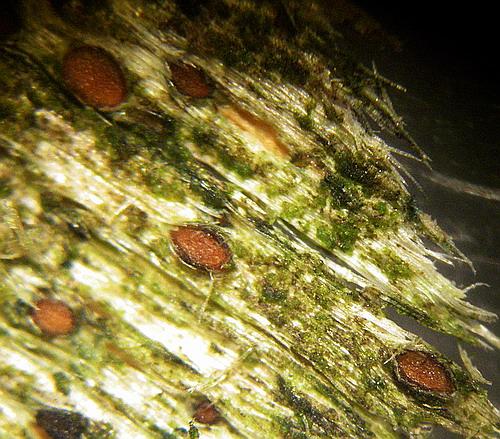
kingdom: Fungi
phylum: Ascomycota
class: Leotiomycetes
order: Helotiales
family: Helotiaceae
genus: Durella
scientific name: Durella atrocyanea
